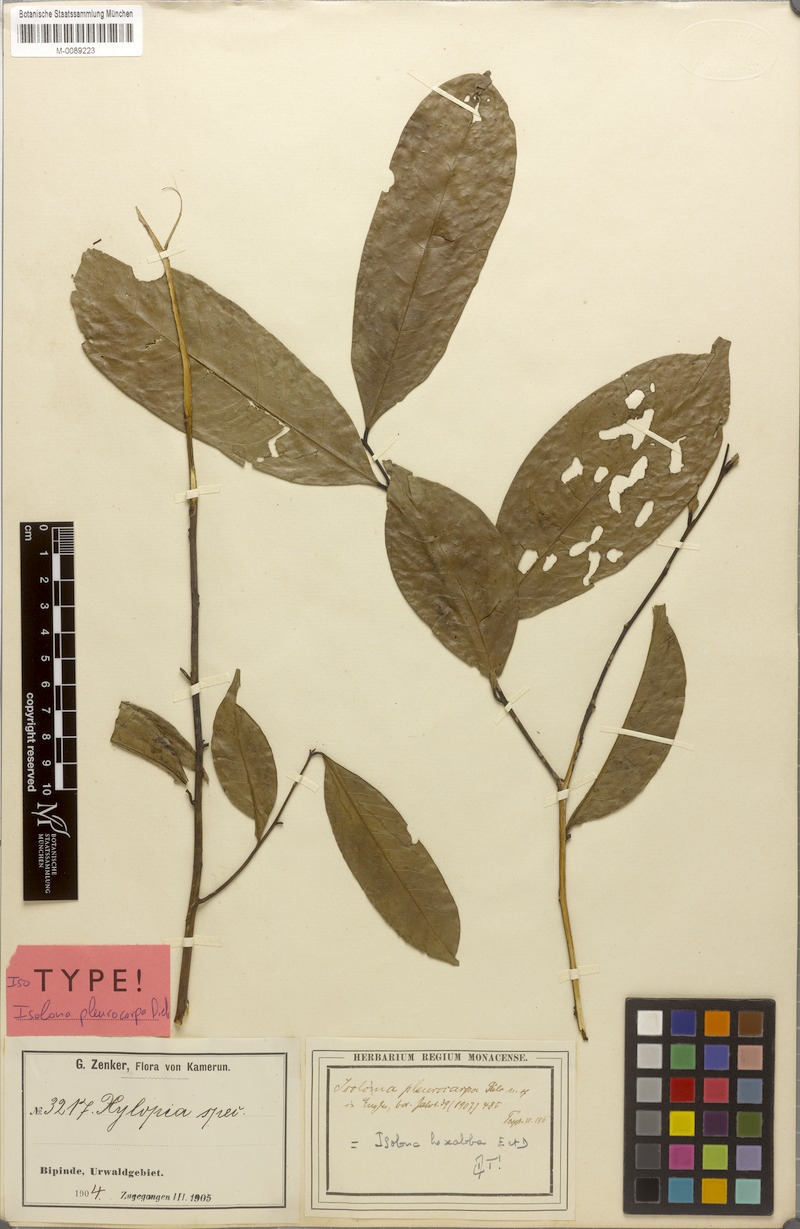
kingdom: Plantae
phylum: Tracheophyta
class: Magnoliopsida
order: Magnoliales
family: Annonaceae
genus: Isolona
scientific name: Isolona hexaloba
